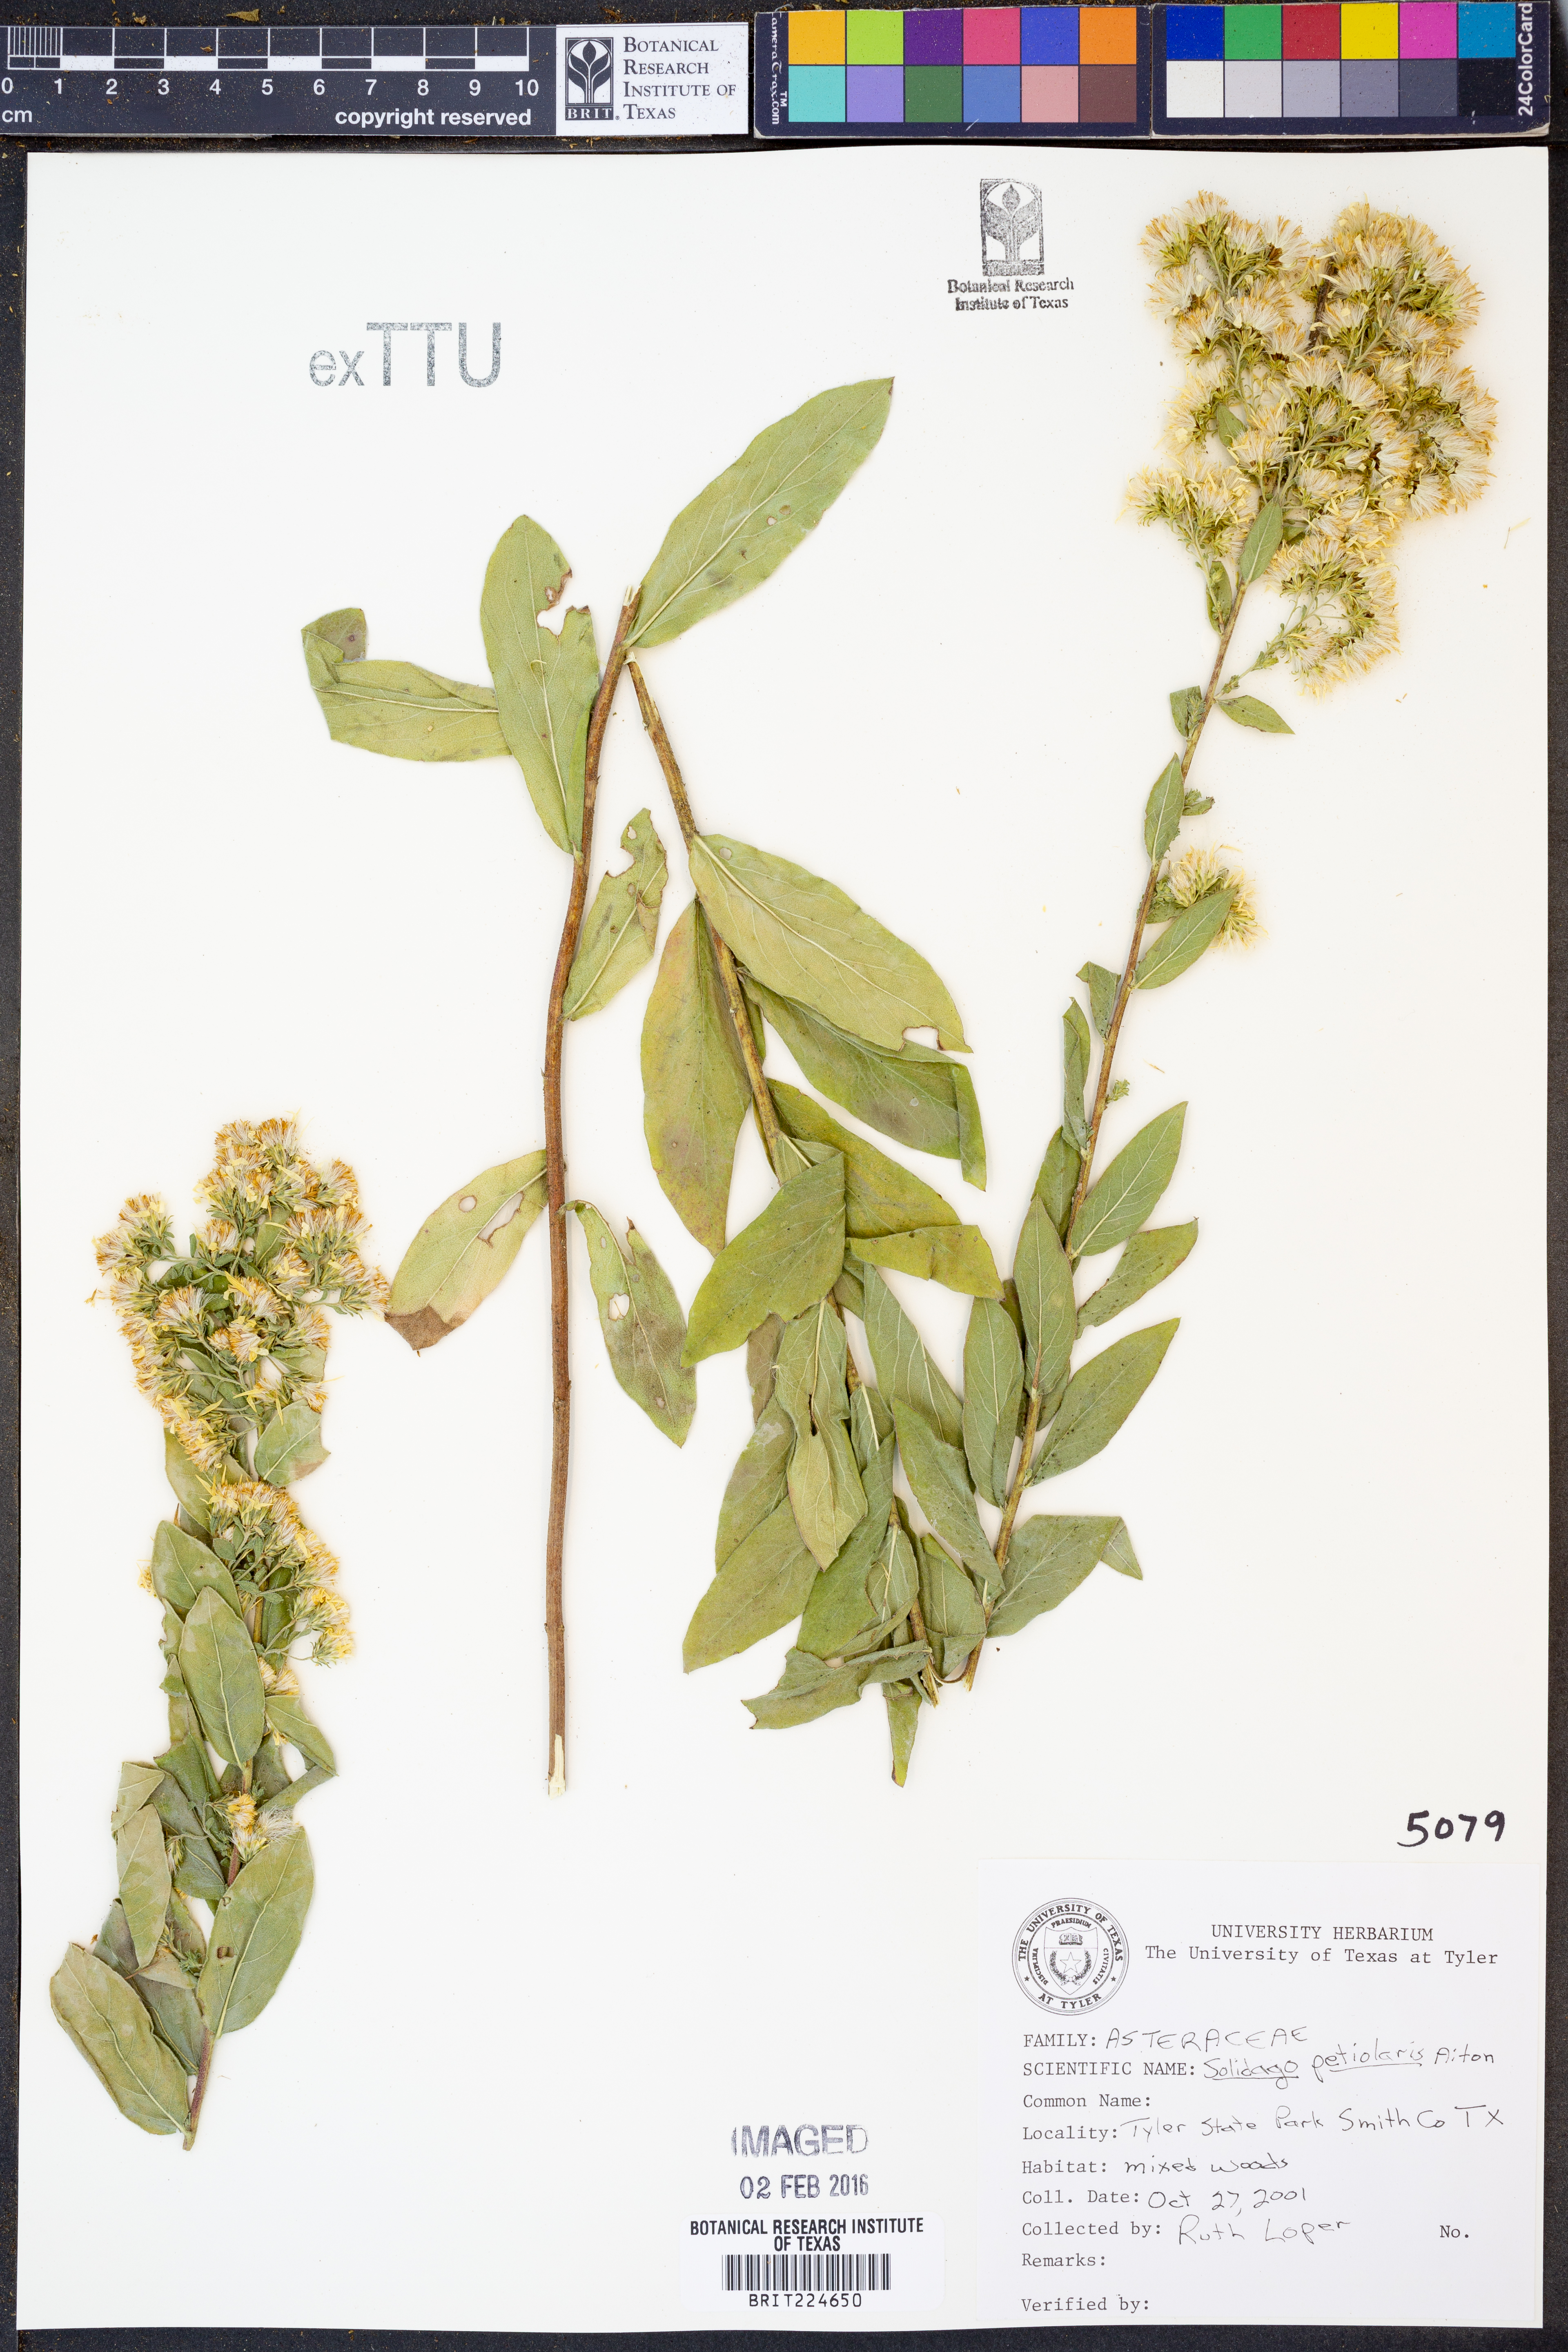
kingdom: Plantae
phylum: Tracheophyta
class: Magnoliopsida
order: Asterales
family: Asteraceae
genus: Solidago
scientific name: Solidago petiolaris
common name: Downy ragged goldenrod
